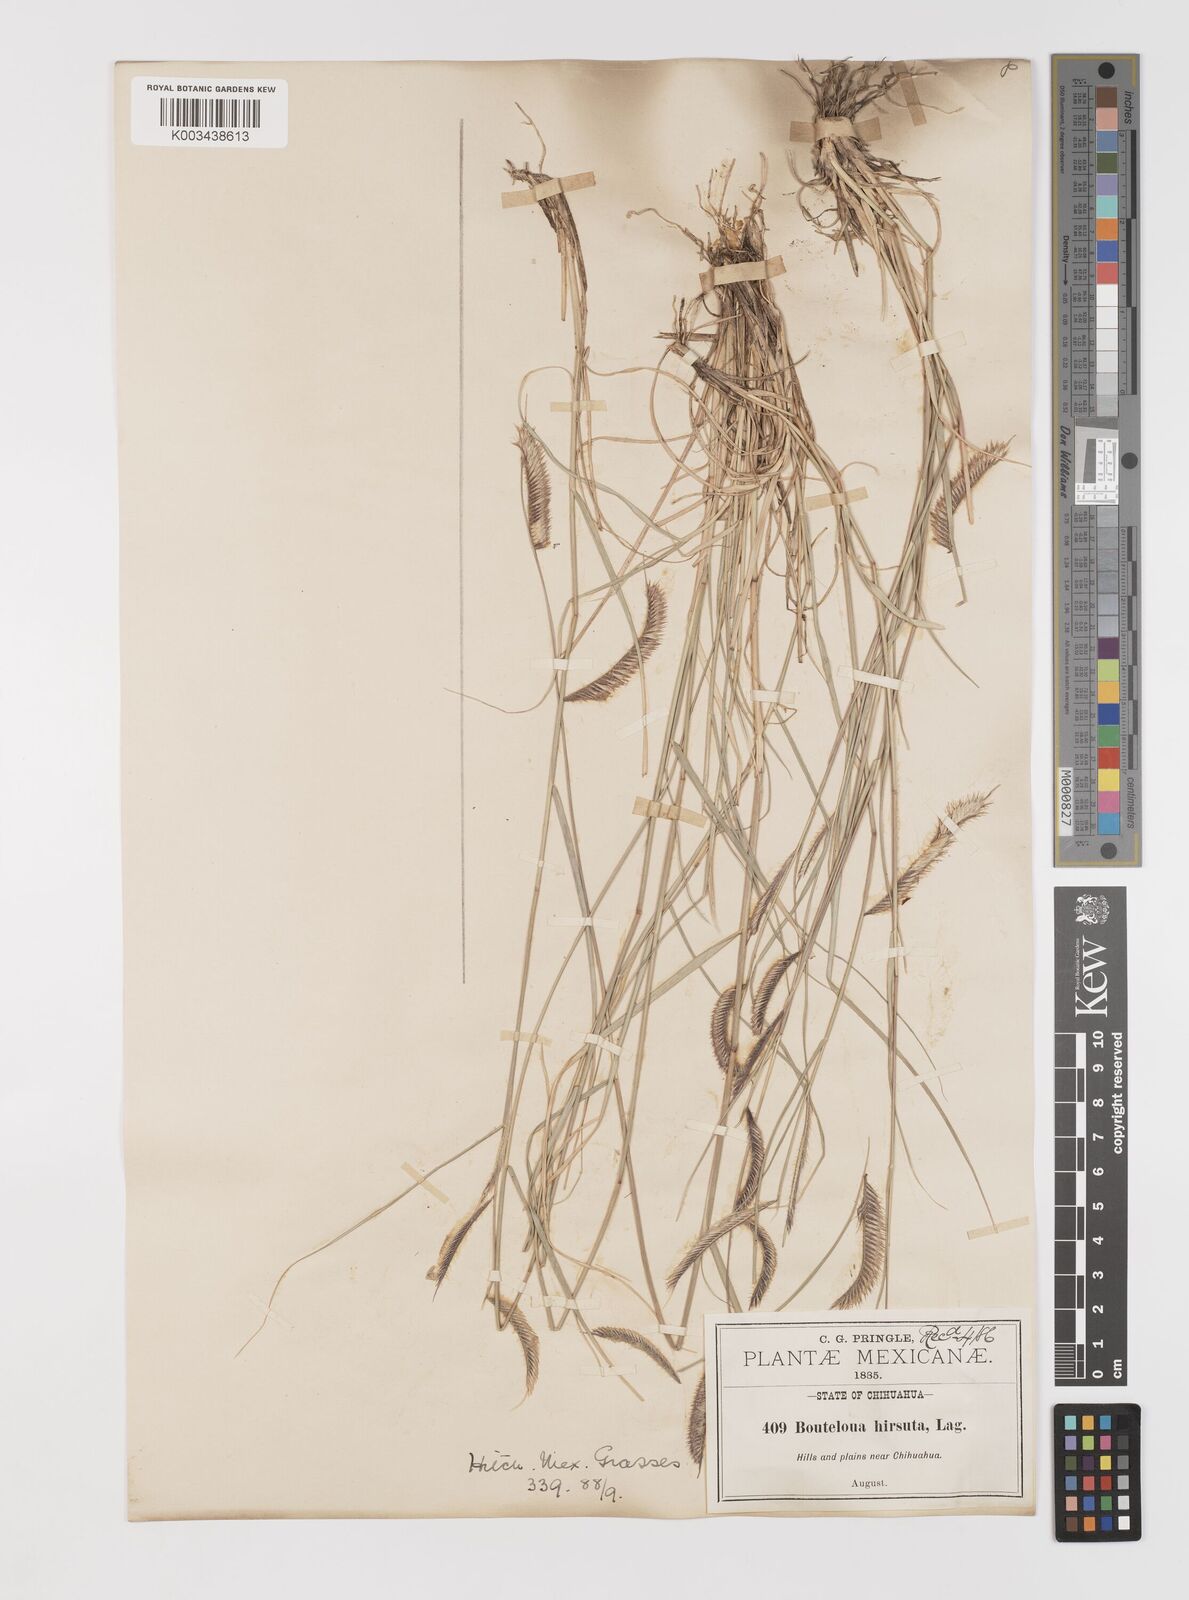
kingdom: Plantae
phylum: Tracheophyta
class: Liliopsida
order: Poales
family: Poaceae
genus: Bouteloua
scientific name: Bouteloua hirsuta
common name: Hairy grama
